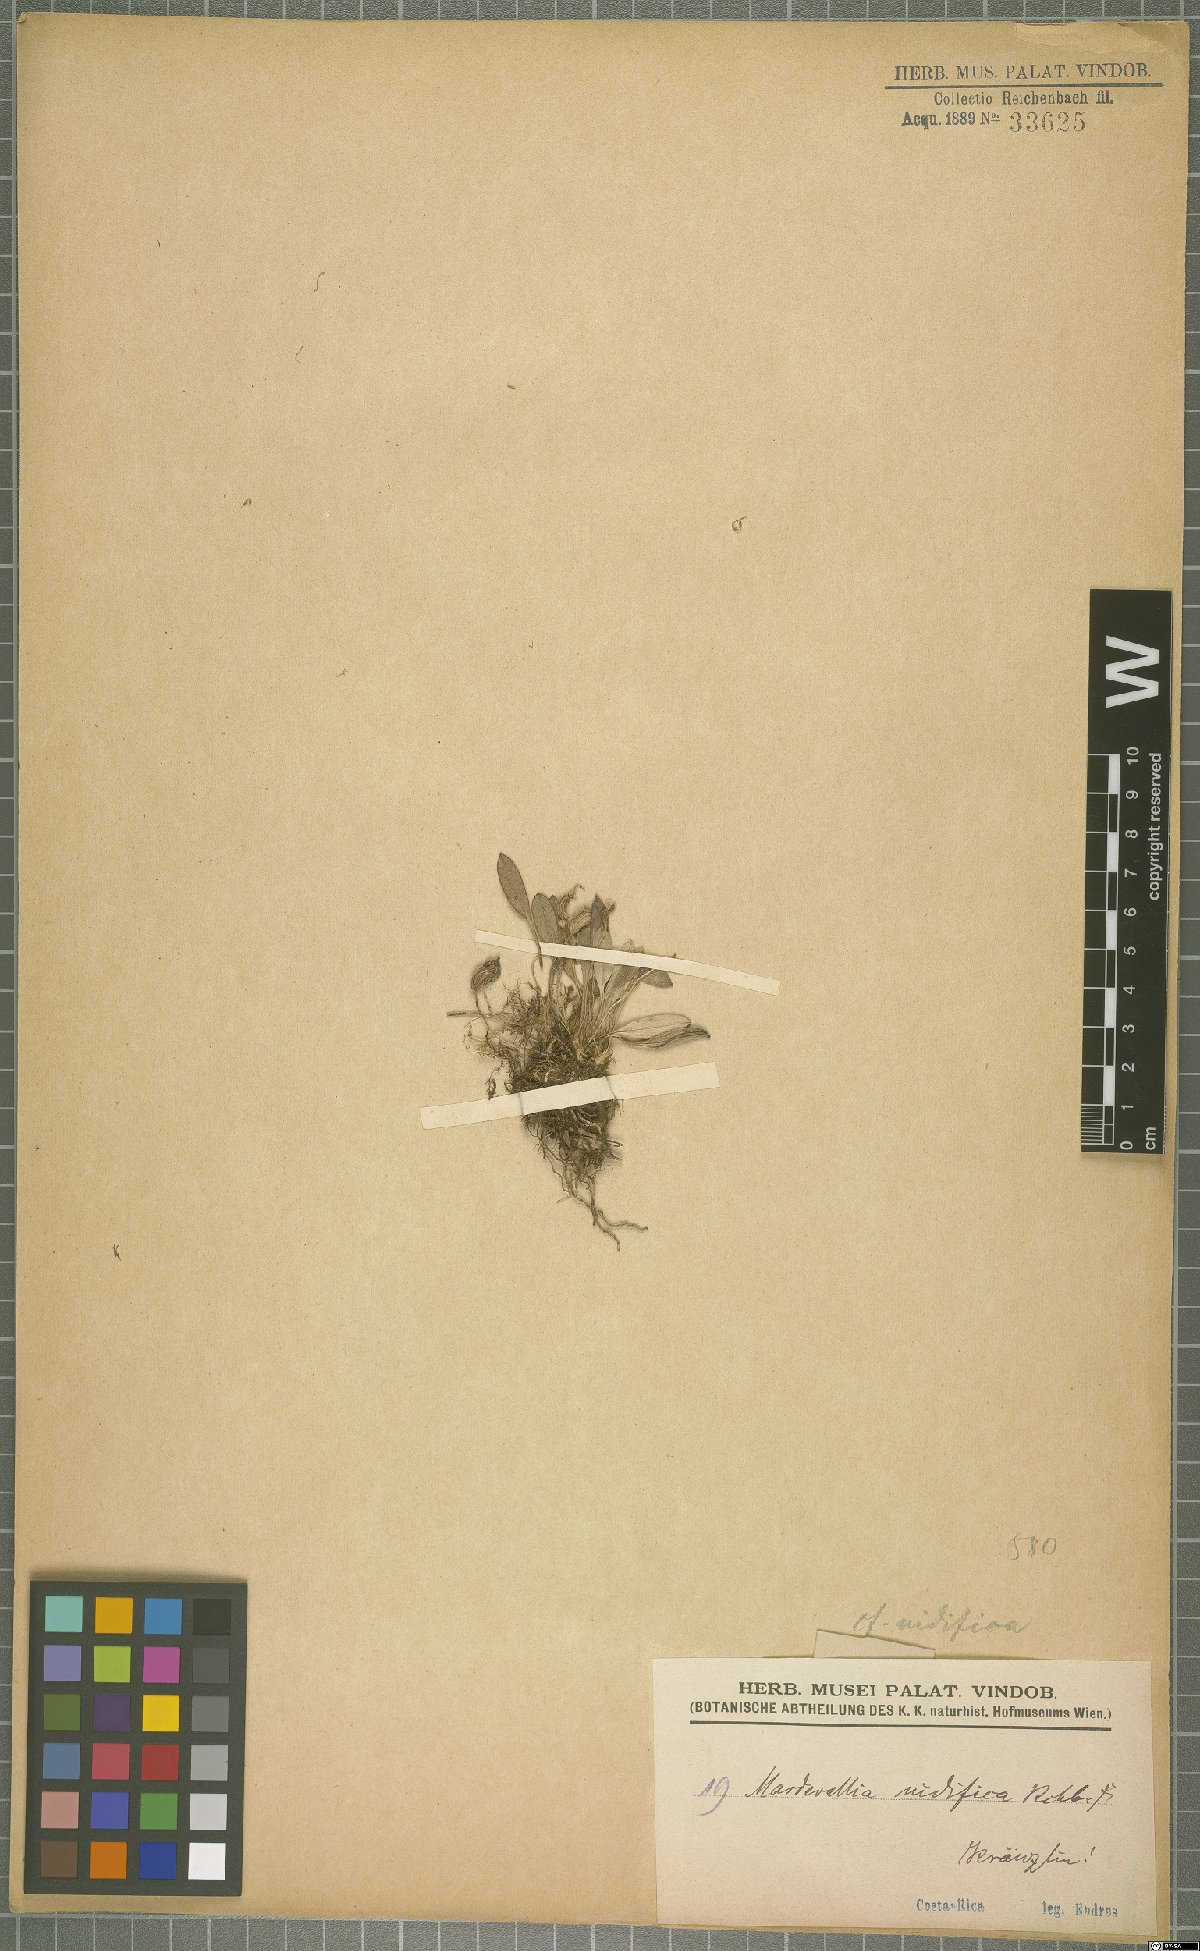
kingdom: Plantae
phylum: Tracheophyta
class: Liliopsida
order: Asparagales
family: Orchidaceae
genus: Masdevallia
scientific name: Masdevallia nidifica
